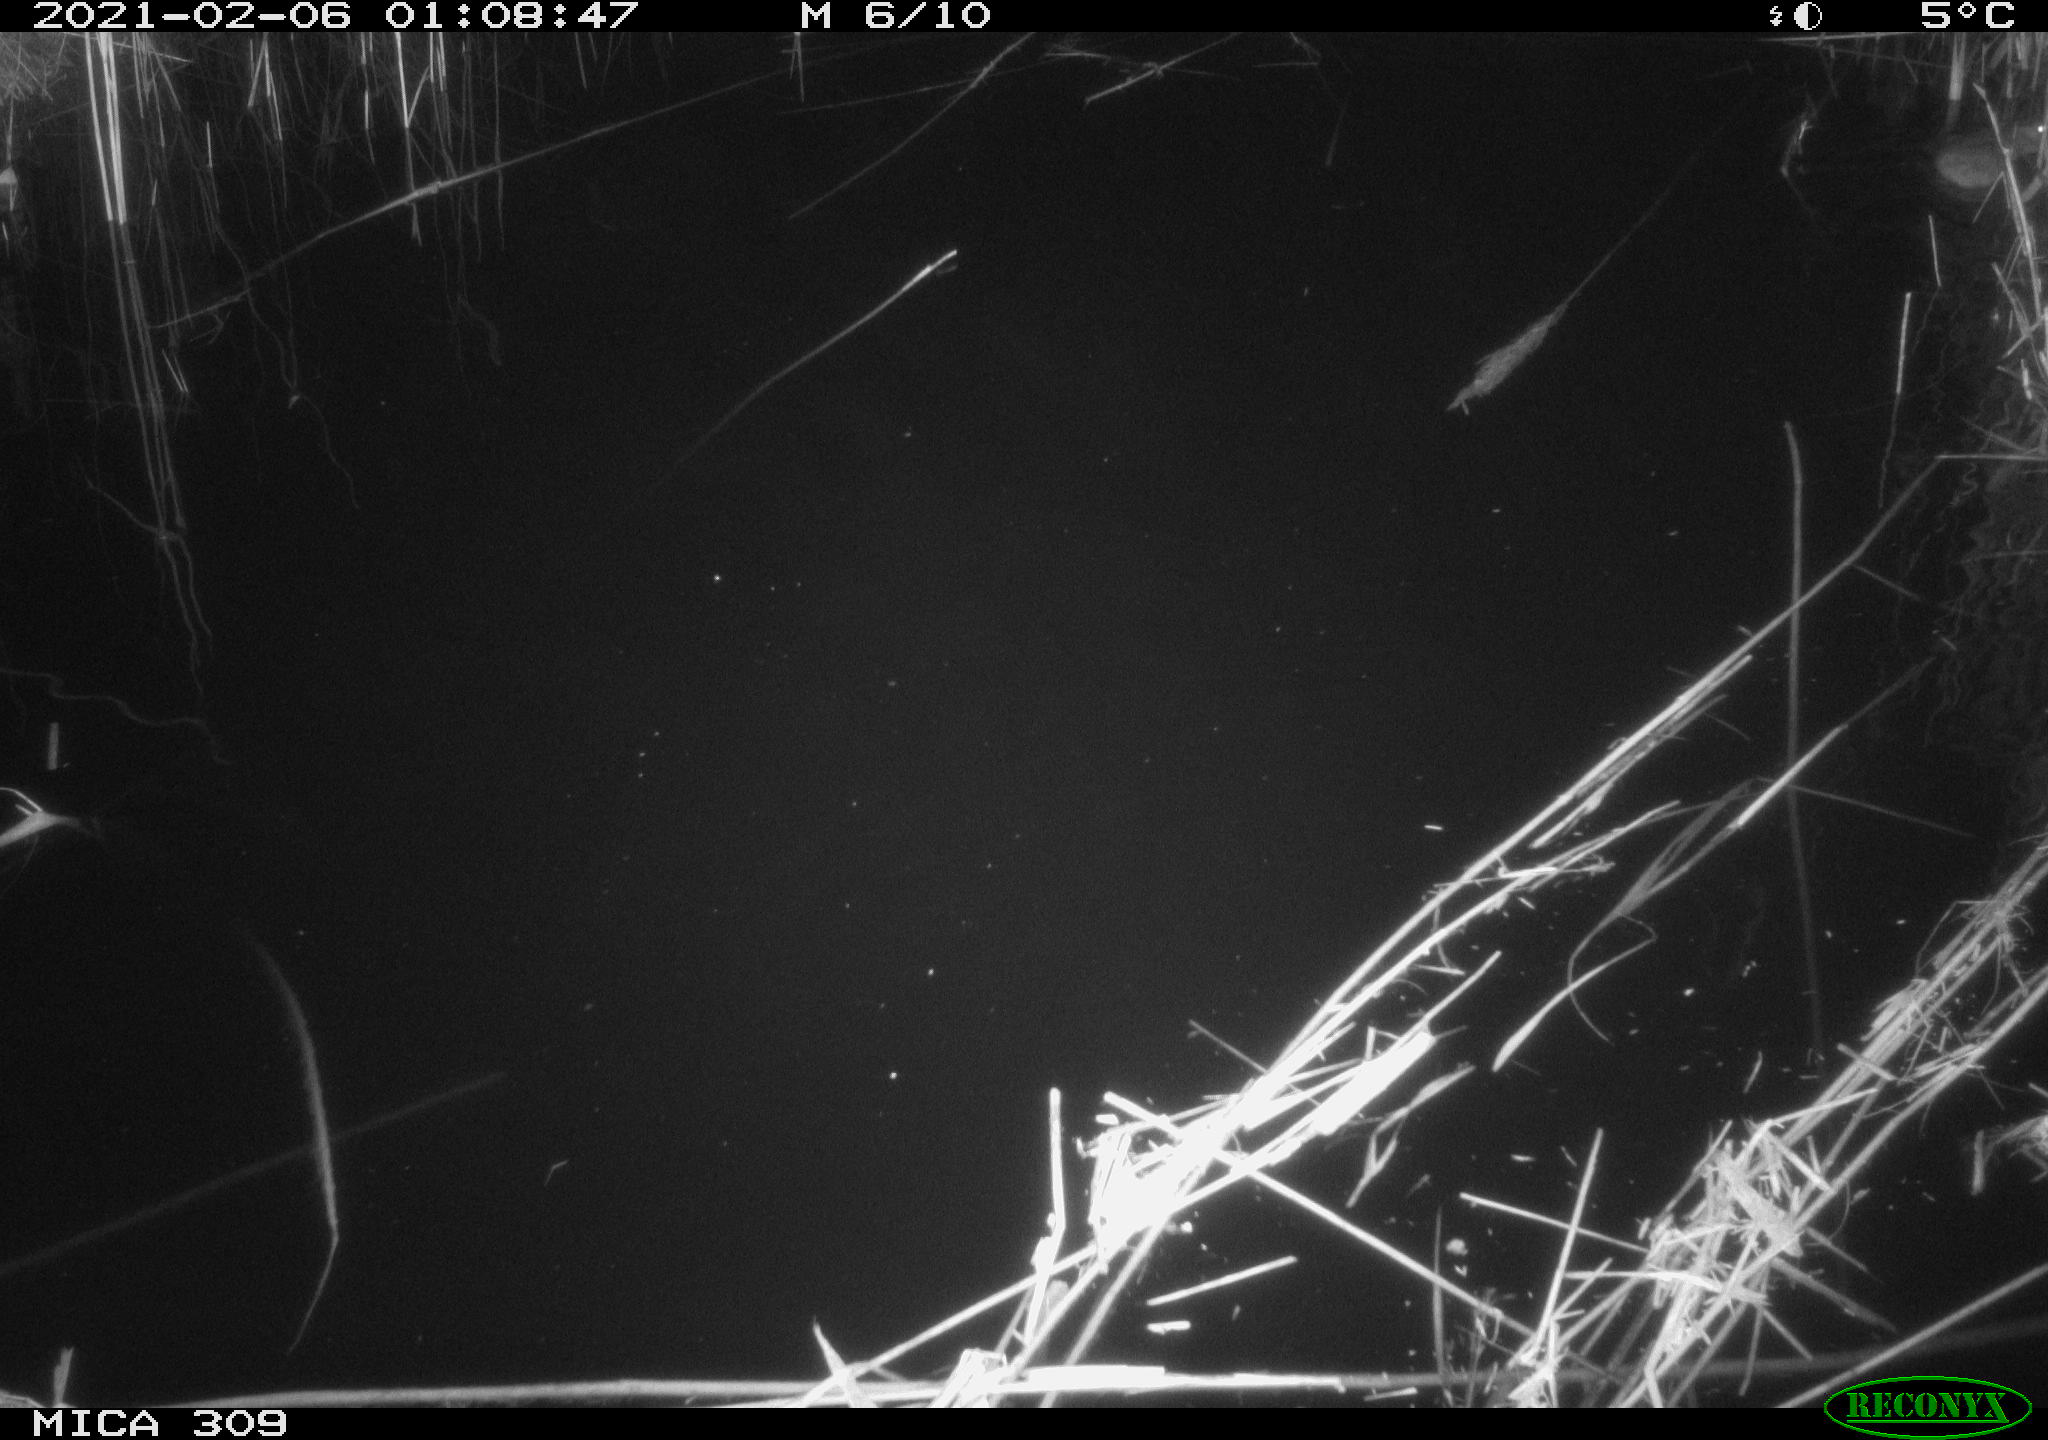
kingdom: Animalia
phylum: Chordata
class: Mammalia
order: Rodentia
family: Muridae
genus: Rattus
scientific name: Rattus norvegicus
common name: Brown rat
